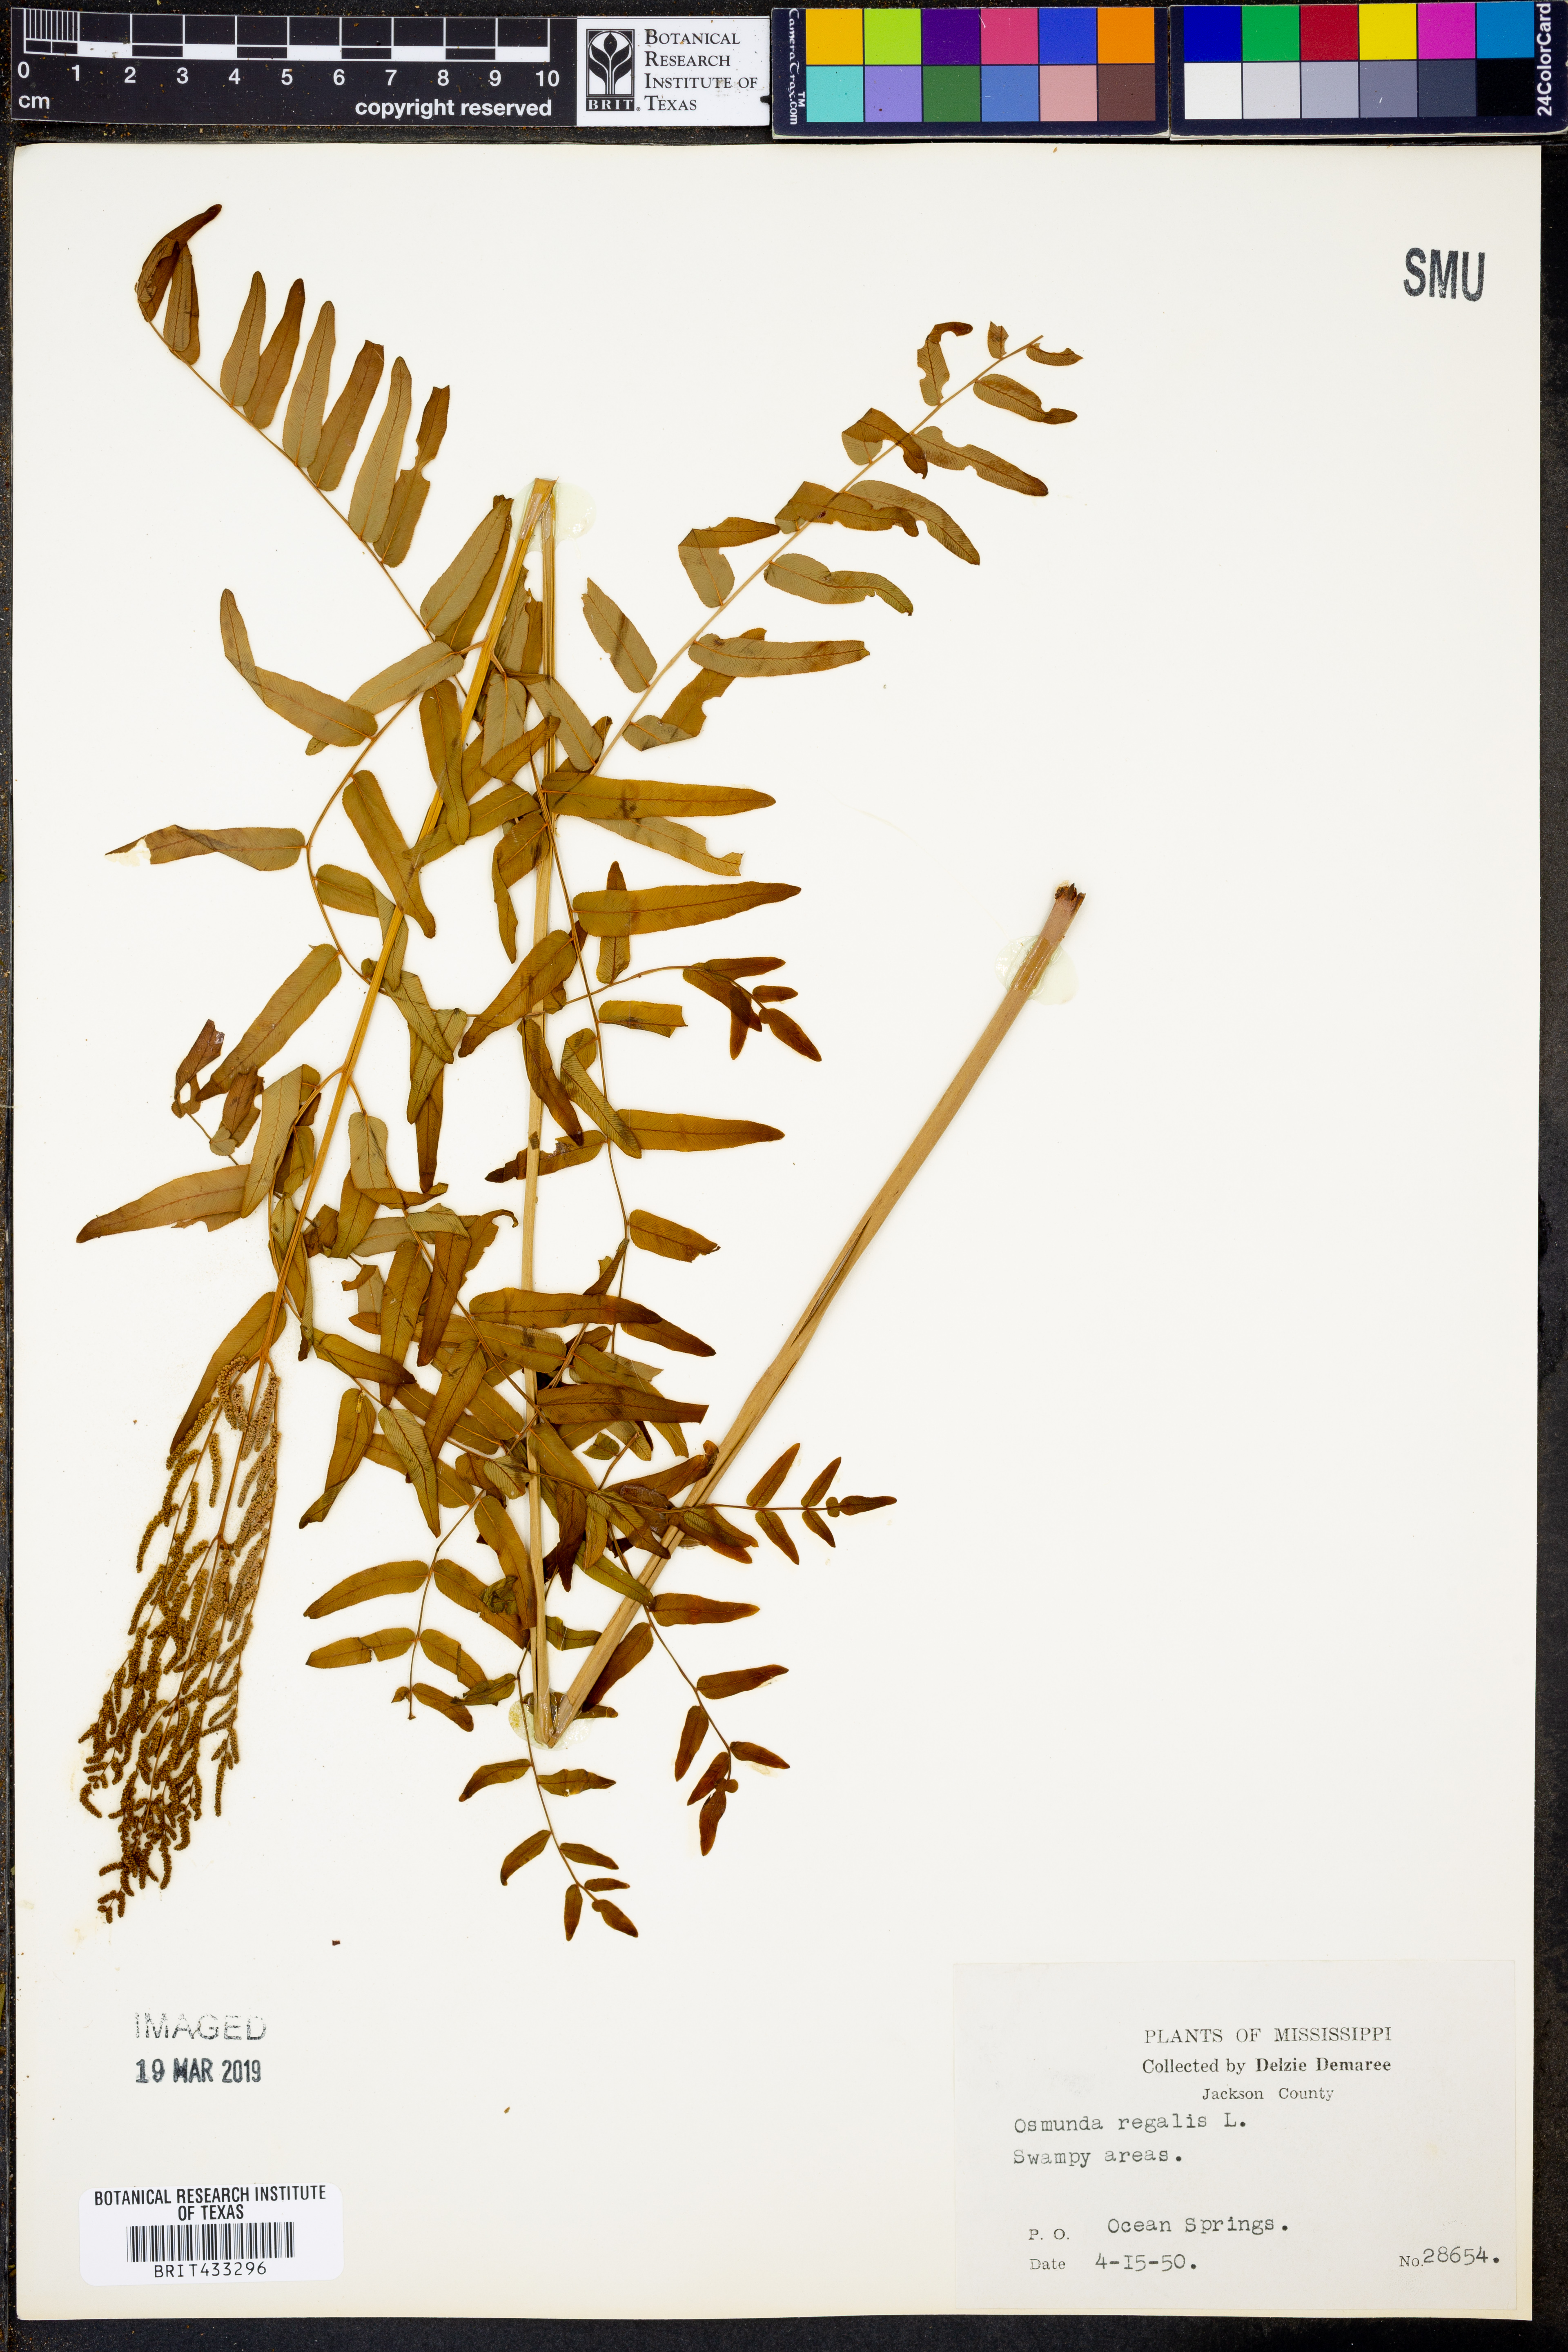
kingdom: Plantae
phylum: Tracheophyta
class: Polypodiopsida
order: Osmundales
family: Osmundaceae
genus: Osmunda
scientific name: Osmunda regalis
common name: Royal fern
